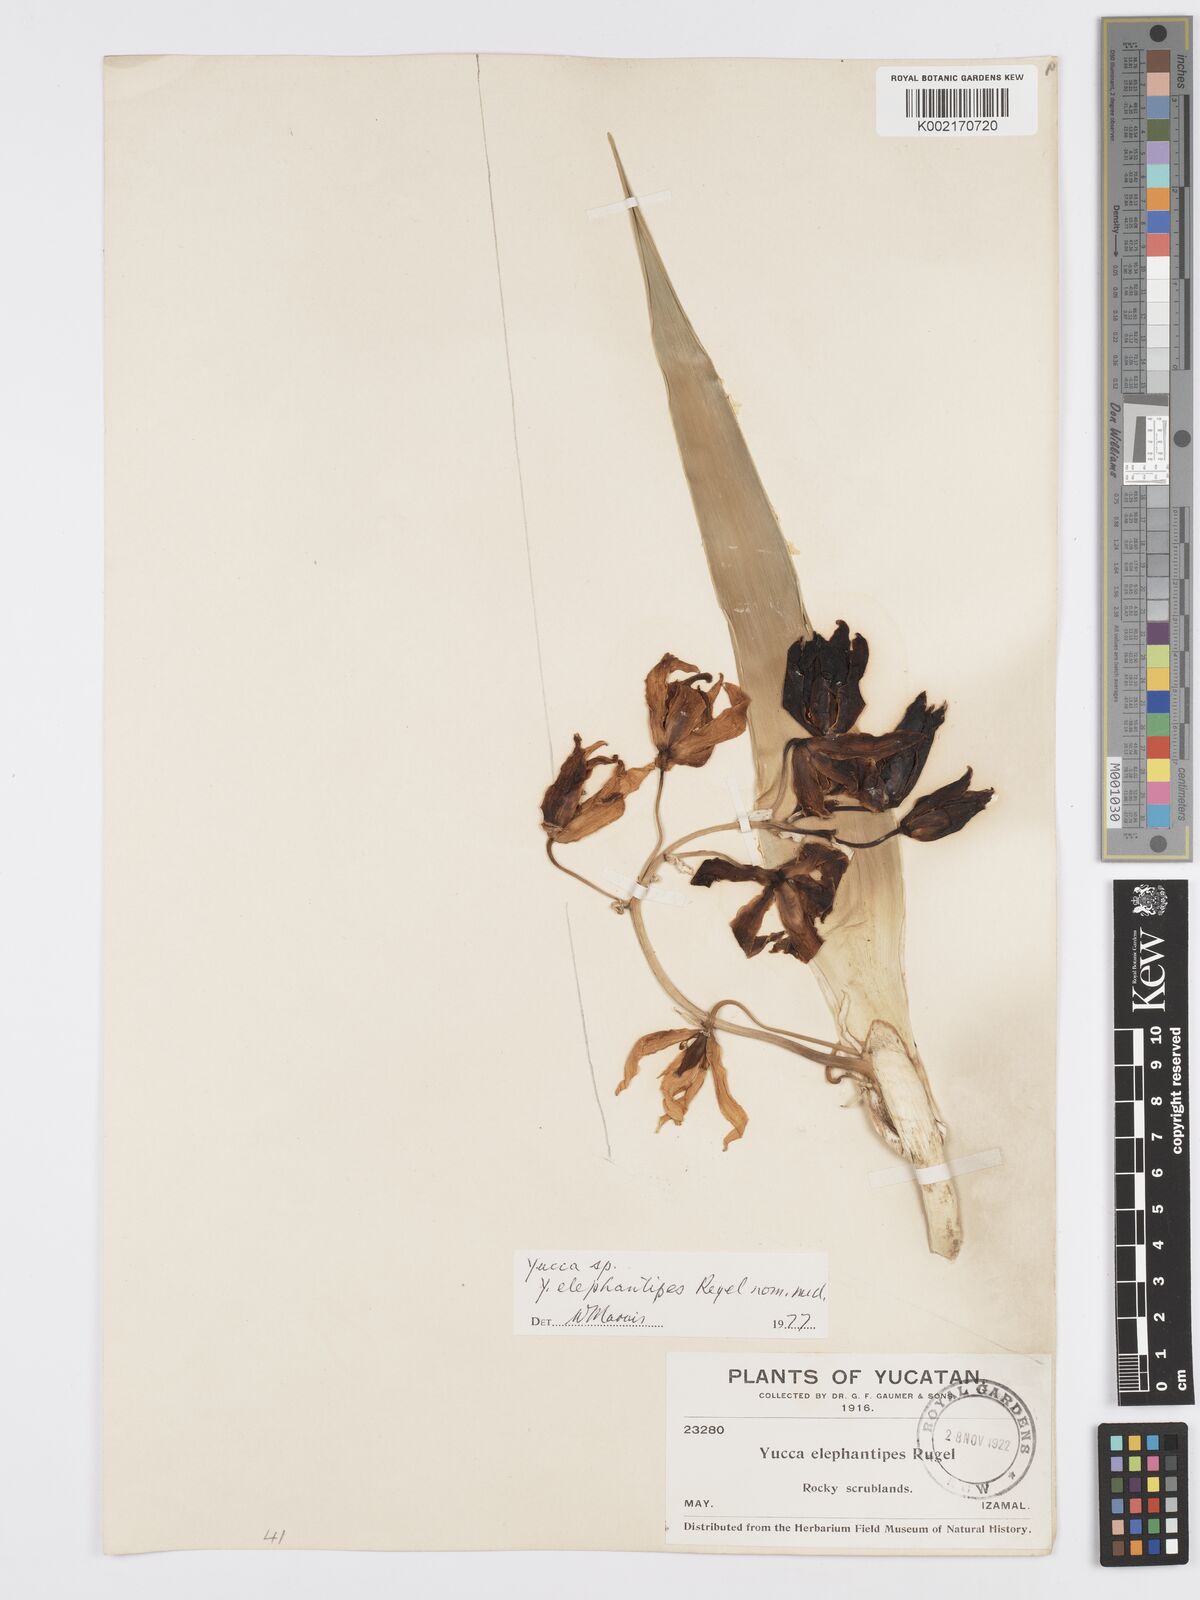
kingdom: Plantae
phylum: Tracheophyta
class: Liliopsida
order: Asparagales
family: Asparagaceae
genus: Yucca
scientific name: Yucca
